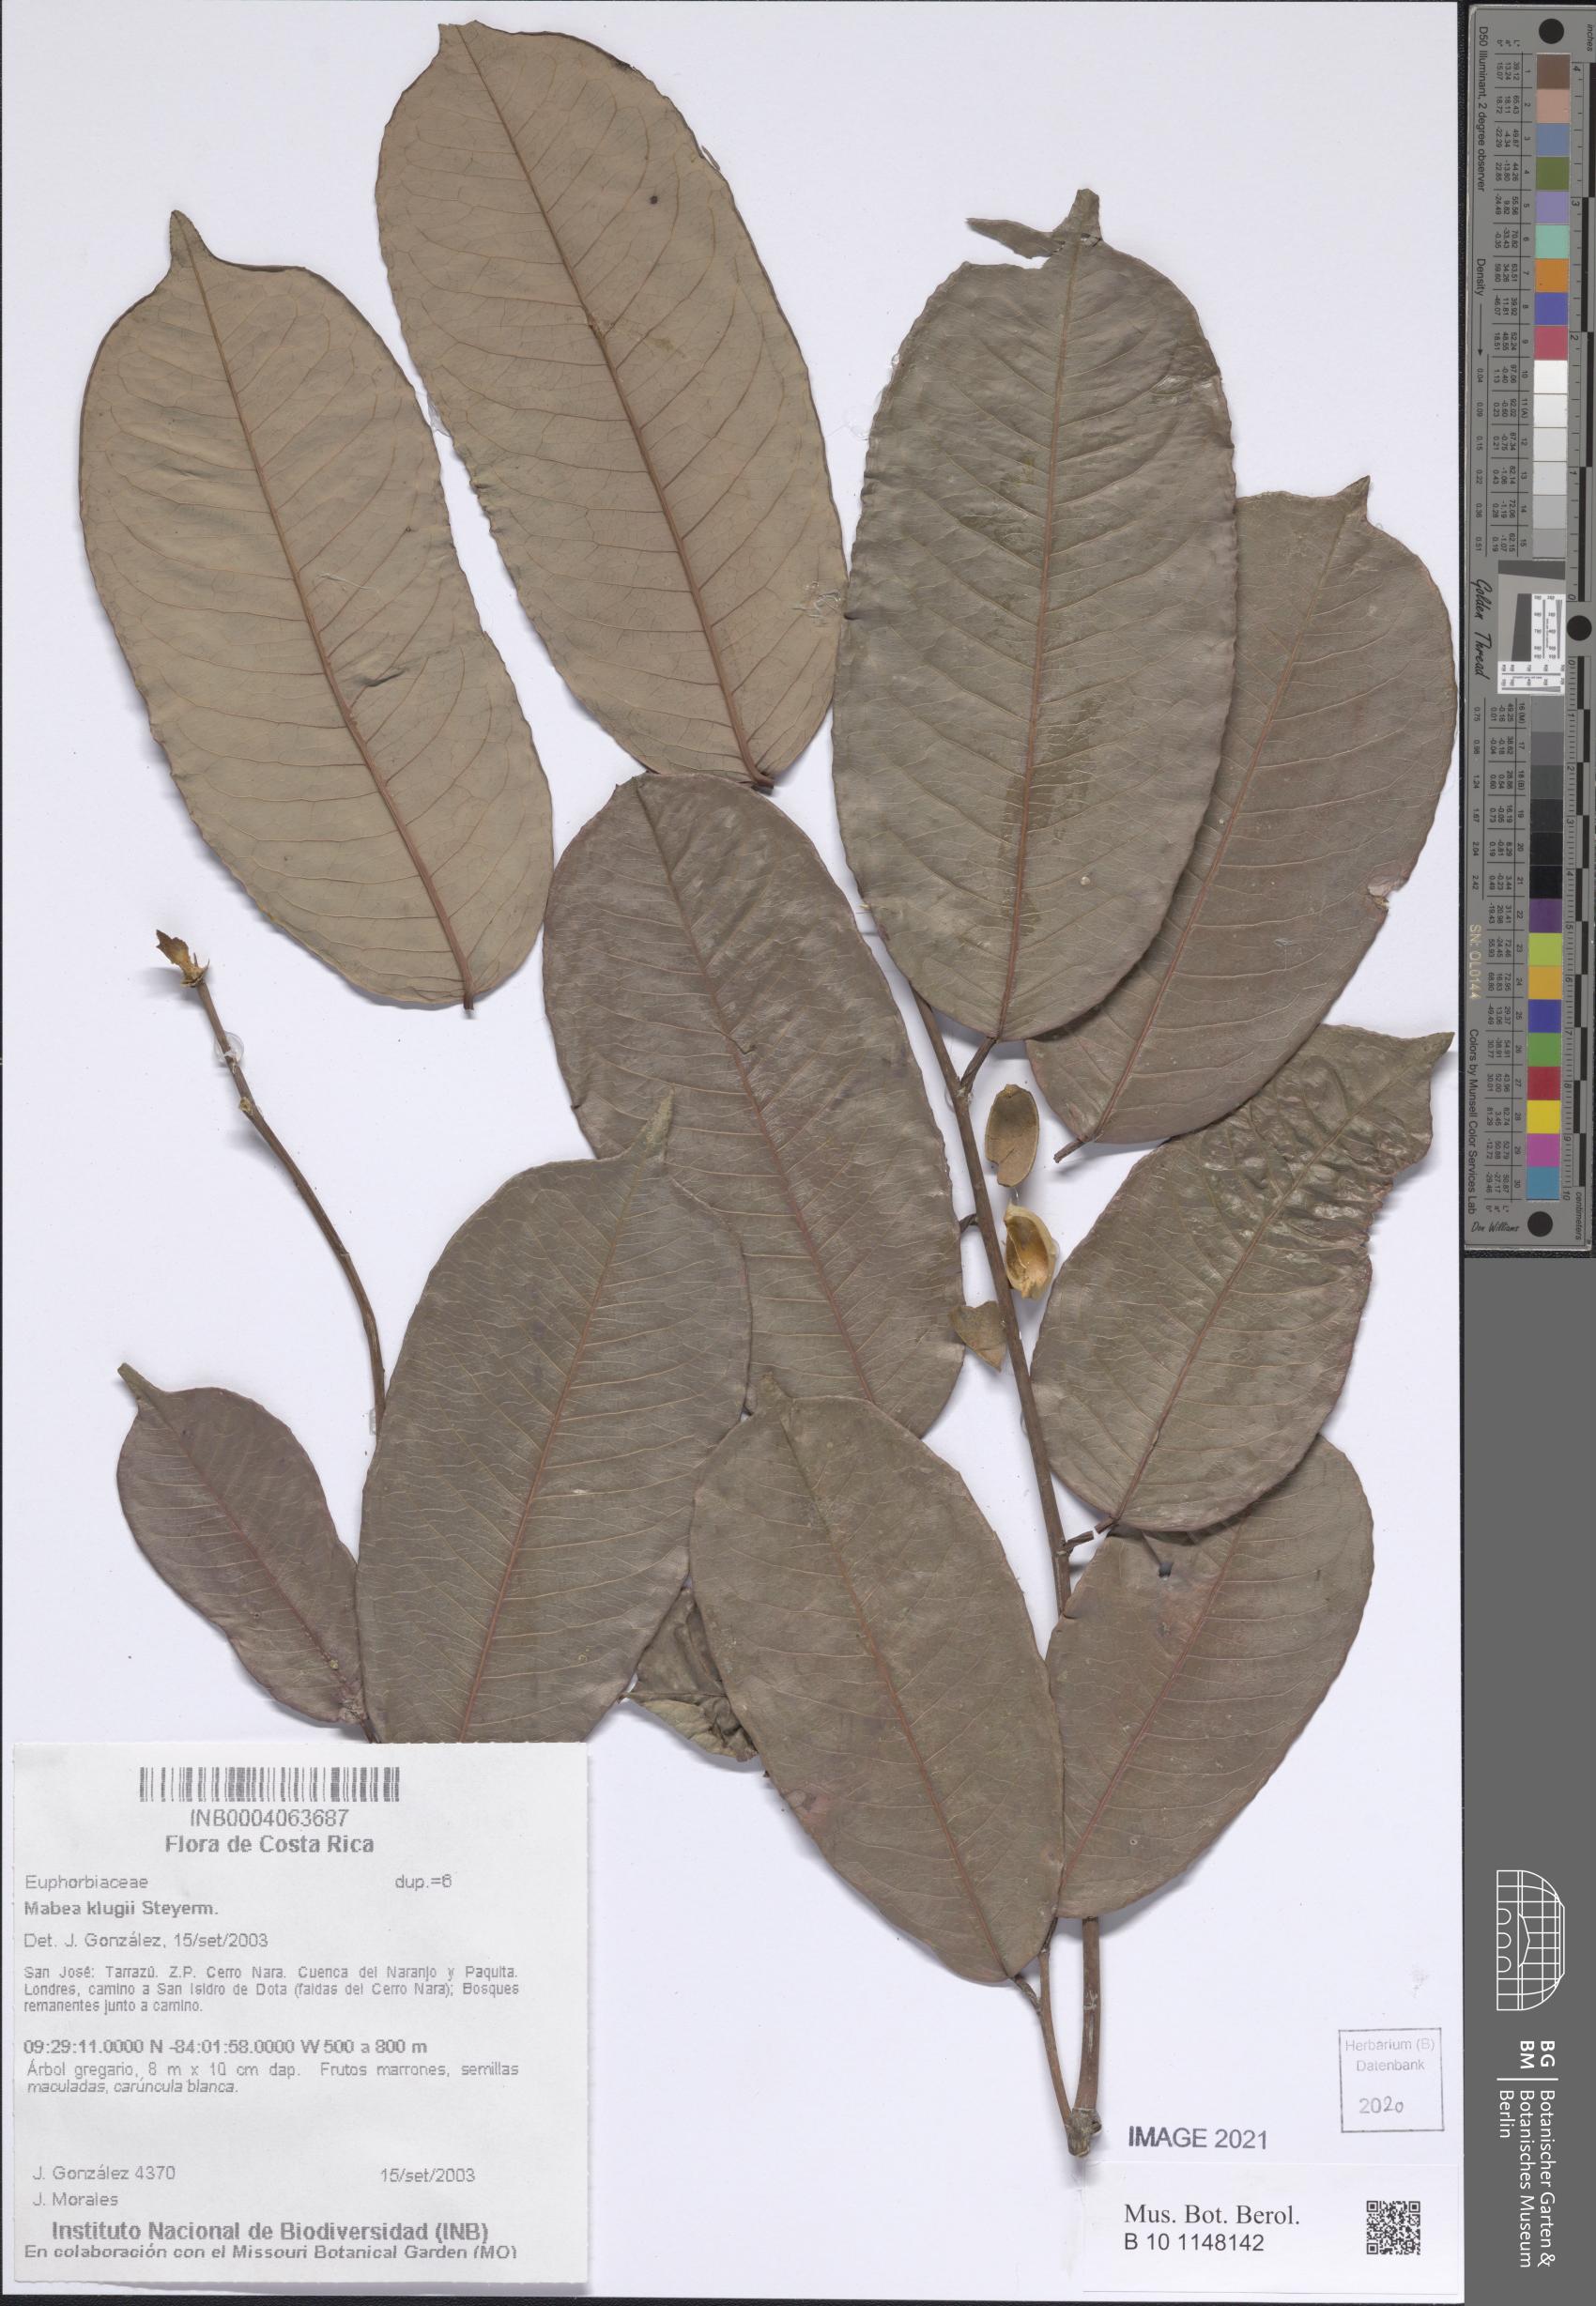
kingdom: Plantae
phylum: Tracheophyta
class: Magnoliopsida
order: Malpighiales
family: Euphorbiaceae
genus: Mabea
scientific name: Mabea klugii
